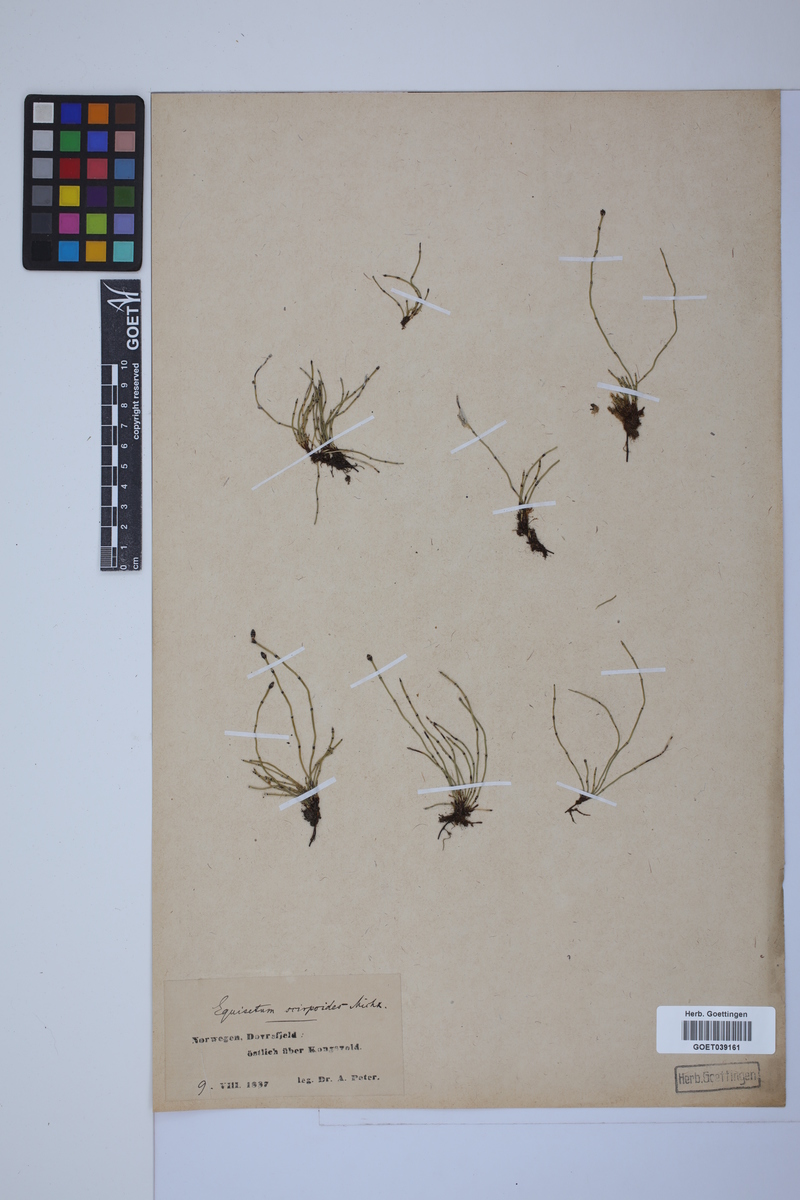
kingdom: Plantae
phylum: Tracheophyta
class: Polypodiopsida
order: Equisetales
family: Equisetaceae
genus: Equisetum
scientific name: Equisetum scirpoides
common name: Delicate horsetail
